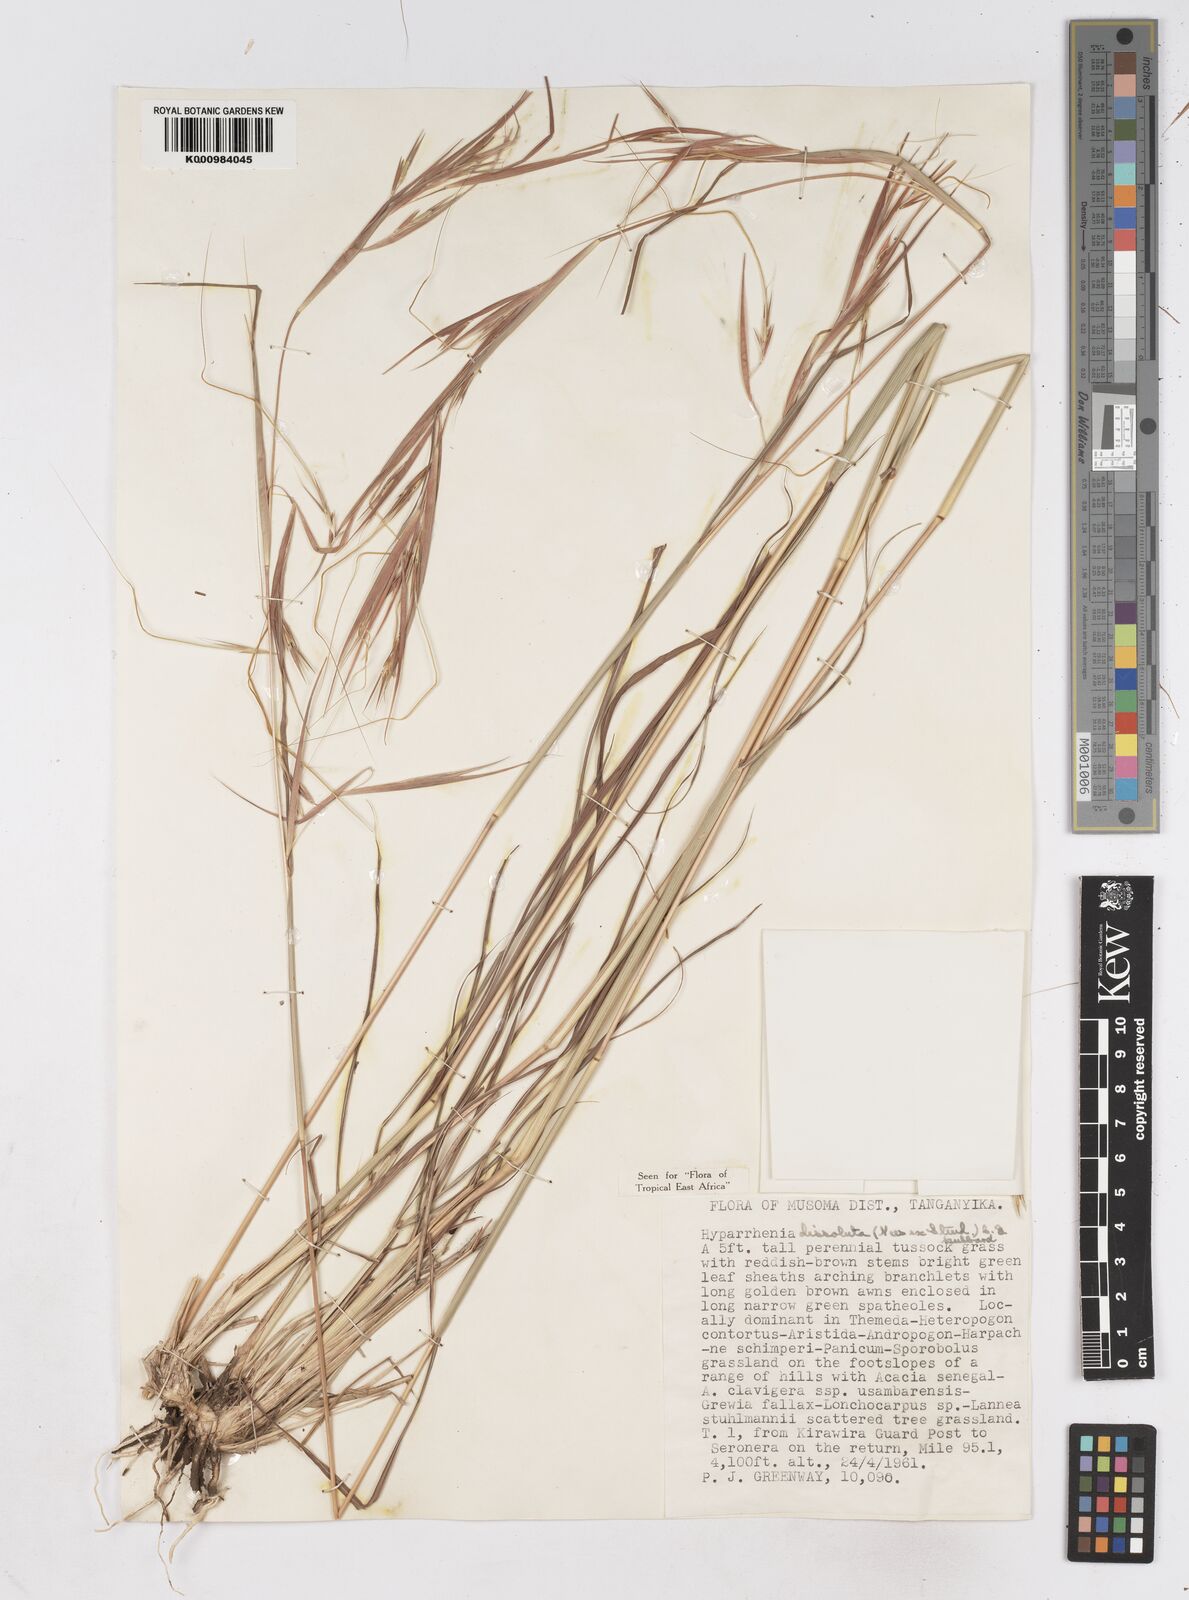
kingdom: Plantae
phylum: Tracheophyta
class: Liliopsida
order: Poales
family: Poaceae
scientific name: Poaceae
